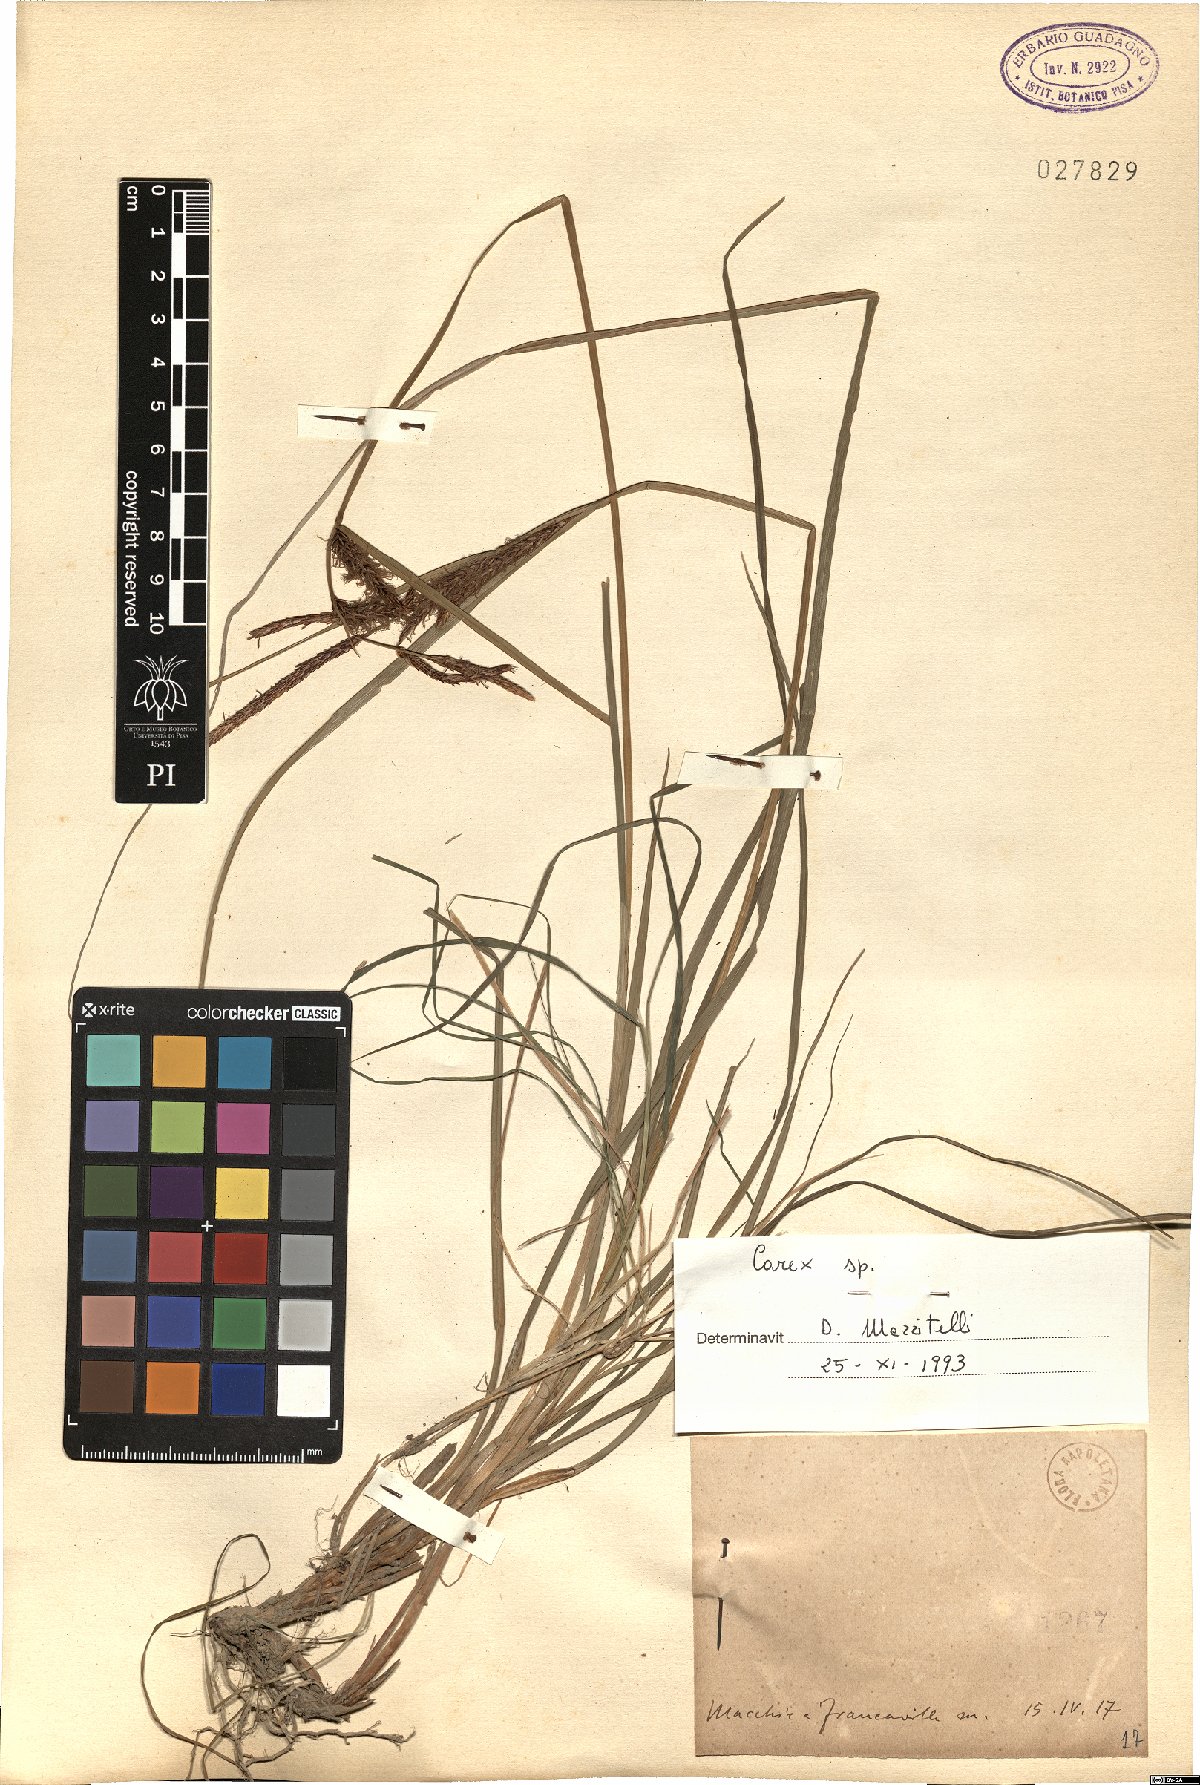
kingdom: Plantae
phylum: Tracheophyta
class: Liliopsida
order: Poales
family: Cyperaceae
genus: Carex
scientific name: Carex
